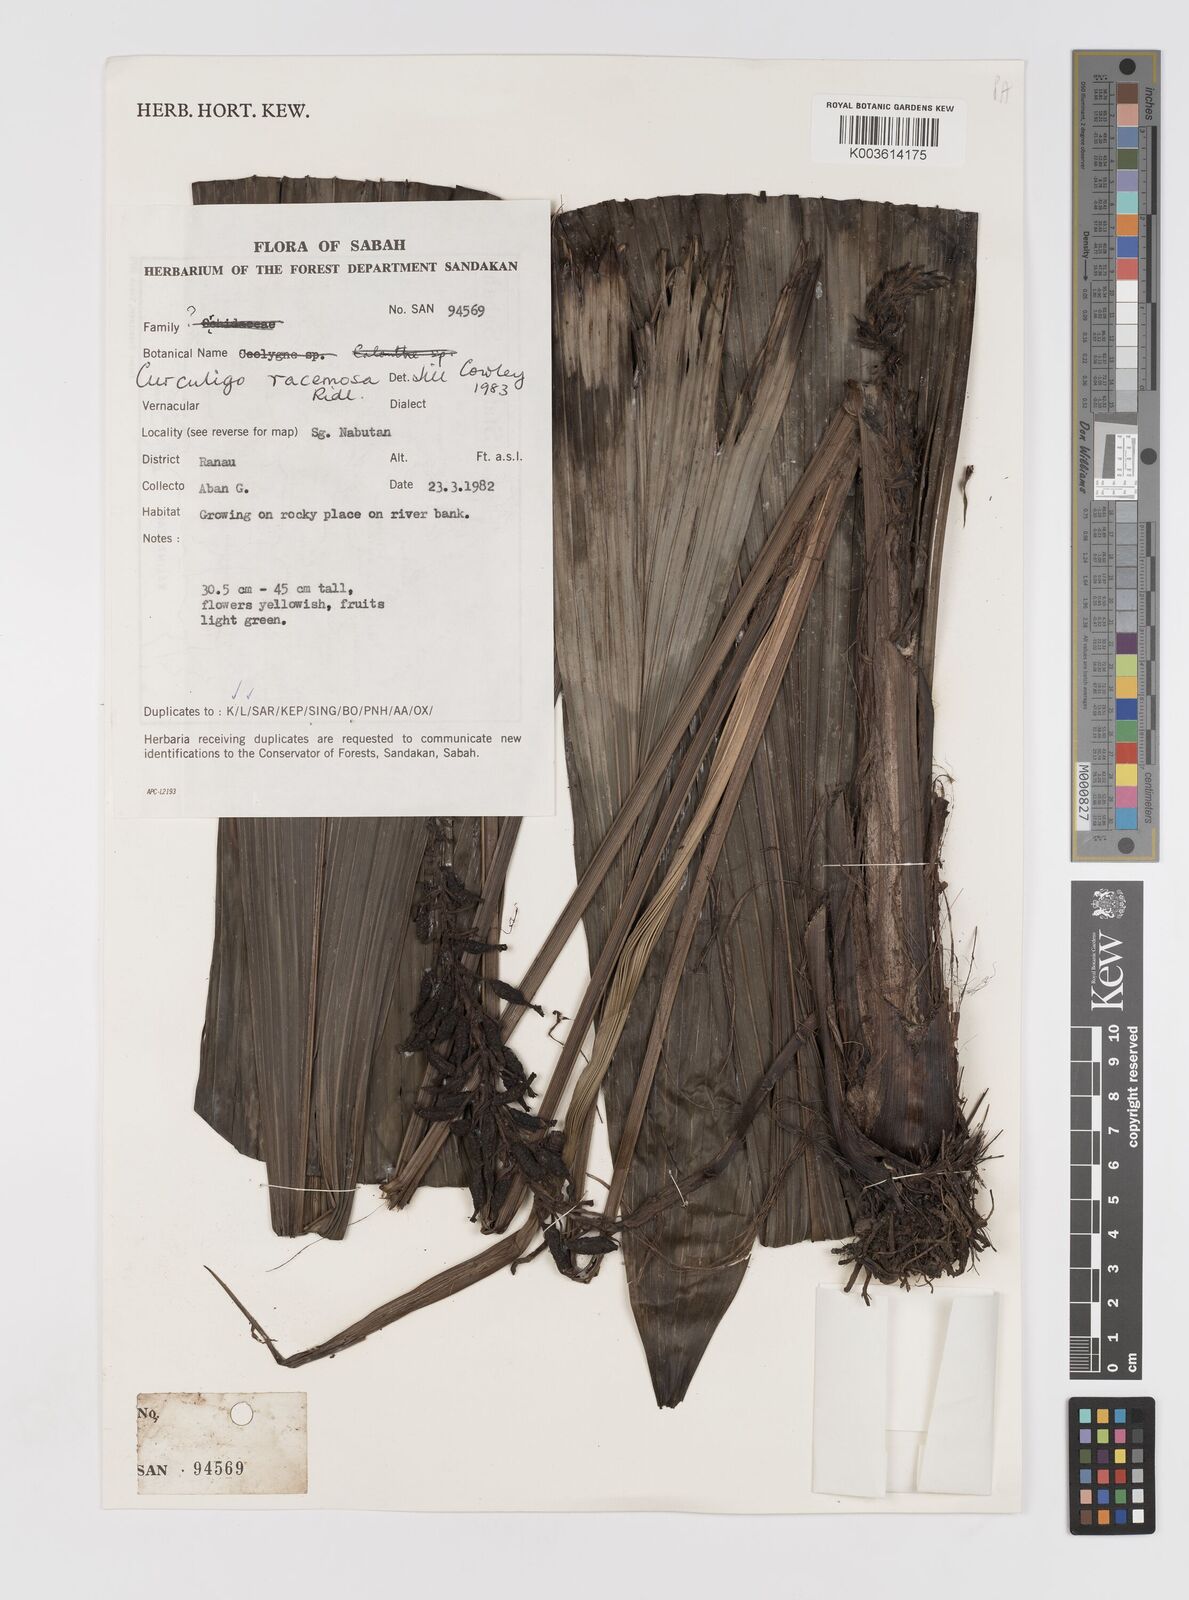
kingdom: Plantae
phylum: Tracheophyta
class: Liliopsida
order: Asparagales
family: Hypoxidaceae
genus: Curculigo
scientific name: Curculigo racemosa
